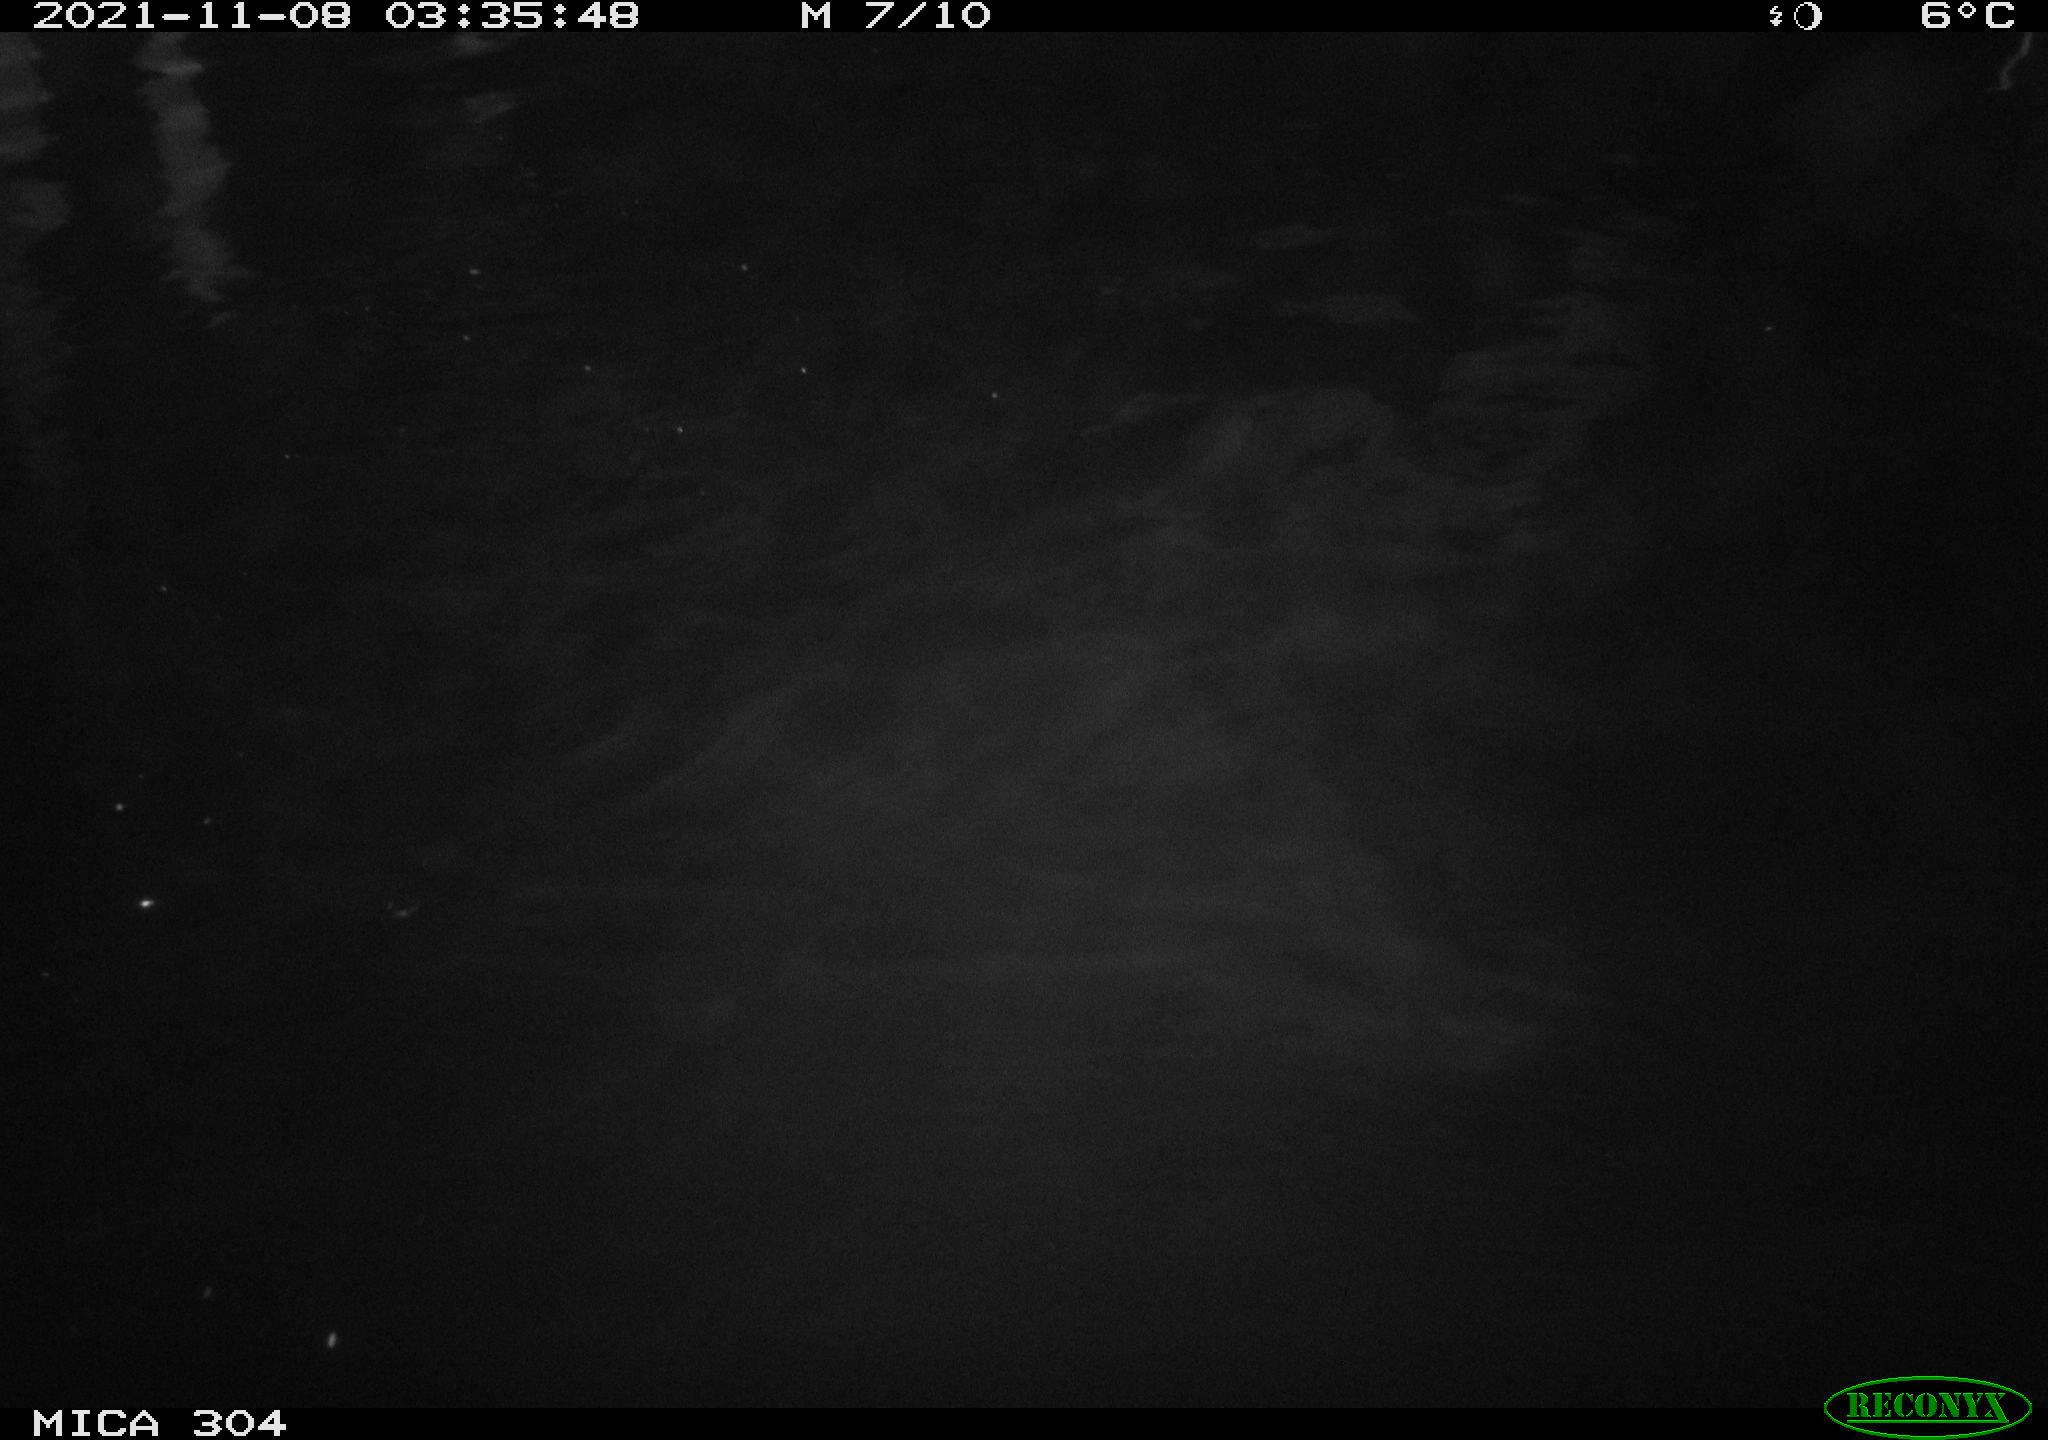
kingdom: Animalia
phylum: Chordata
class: Mammalia
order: Rodentia
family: Muridae
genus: Rattus
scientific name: Rattus norvegicus
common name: Brown rat
